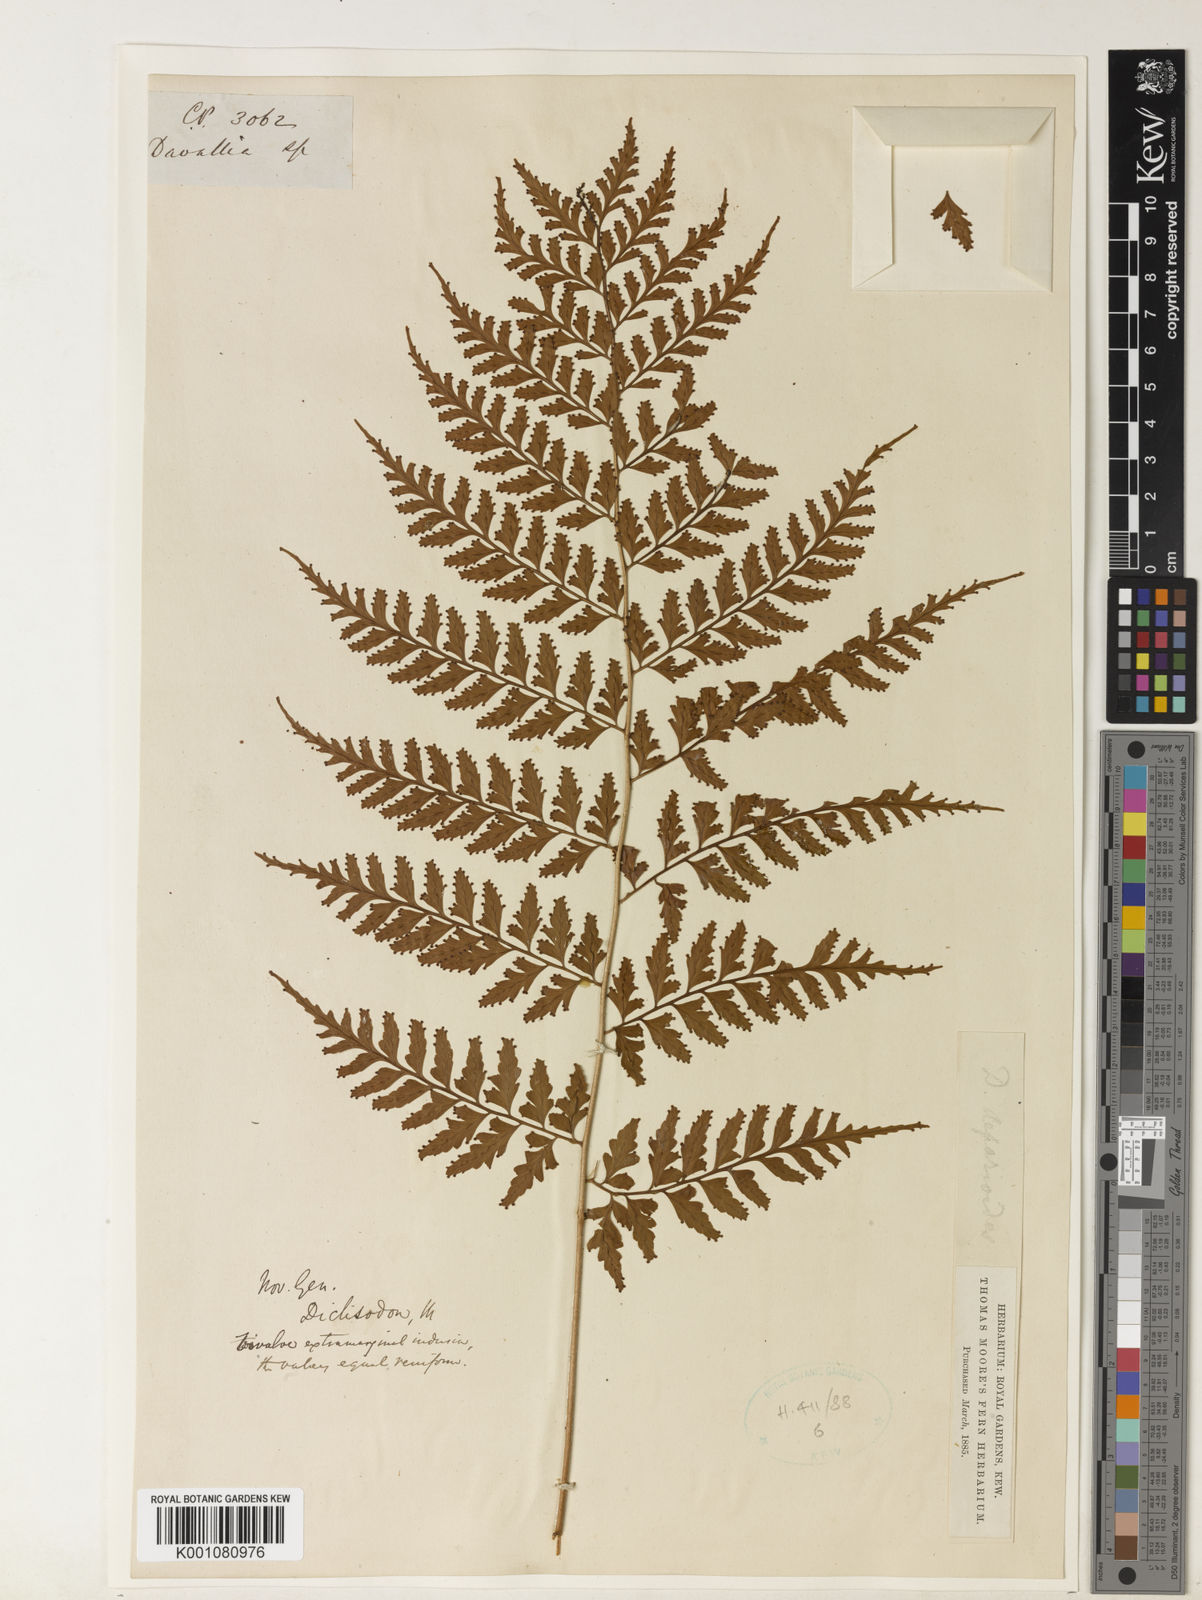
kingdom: Plantae
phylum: Tracheophyta
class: Polypodiopsida
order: Polypodiales
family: Dryopteridaceae
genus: Dryopteris
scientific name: Dryopteris
